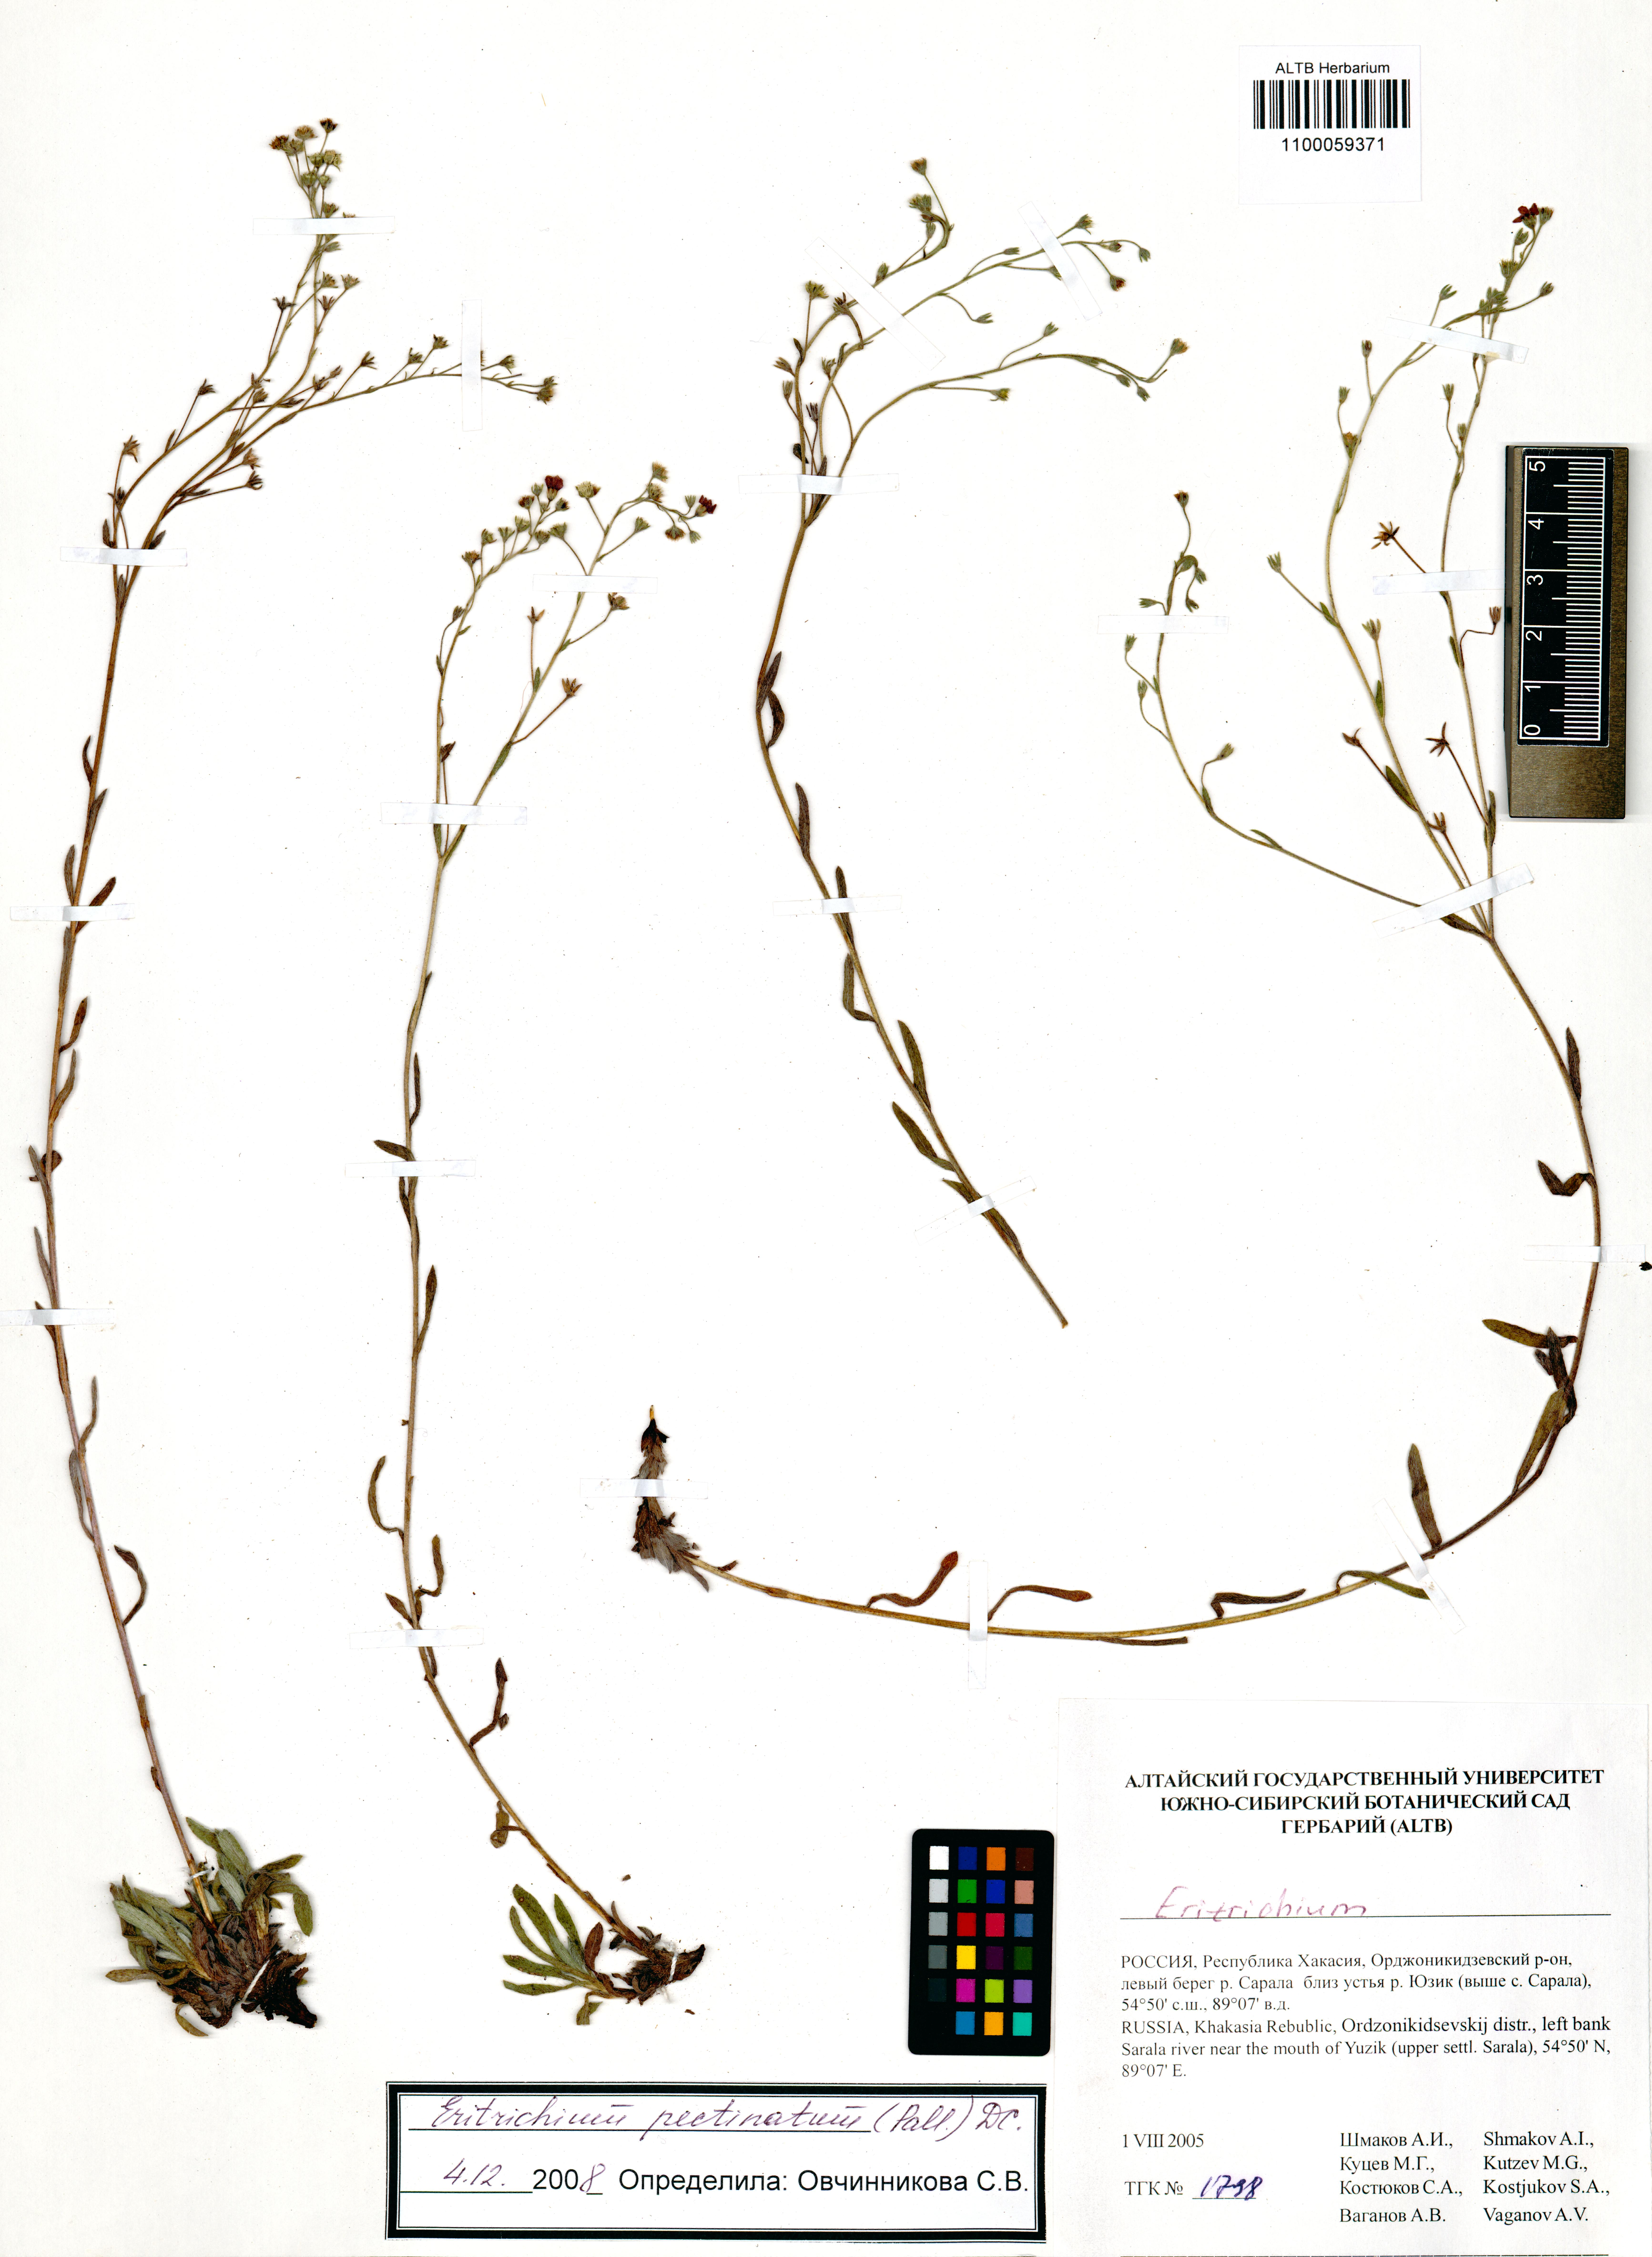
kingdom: Plantae
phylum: Tracheophyta
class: Magnoliopsida
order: Boraginales
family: Boraginaceae
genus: Eritrichium
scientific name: Eritrichium pectinatum
